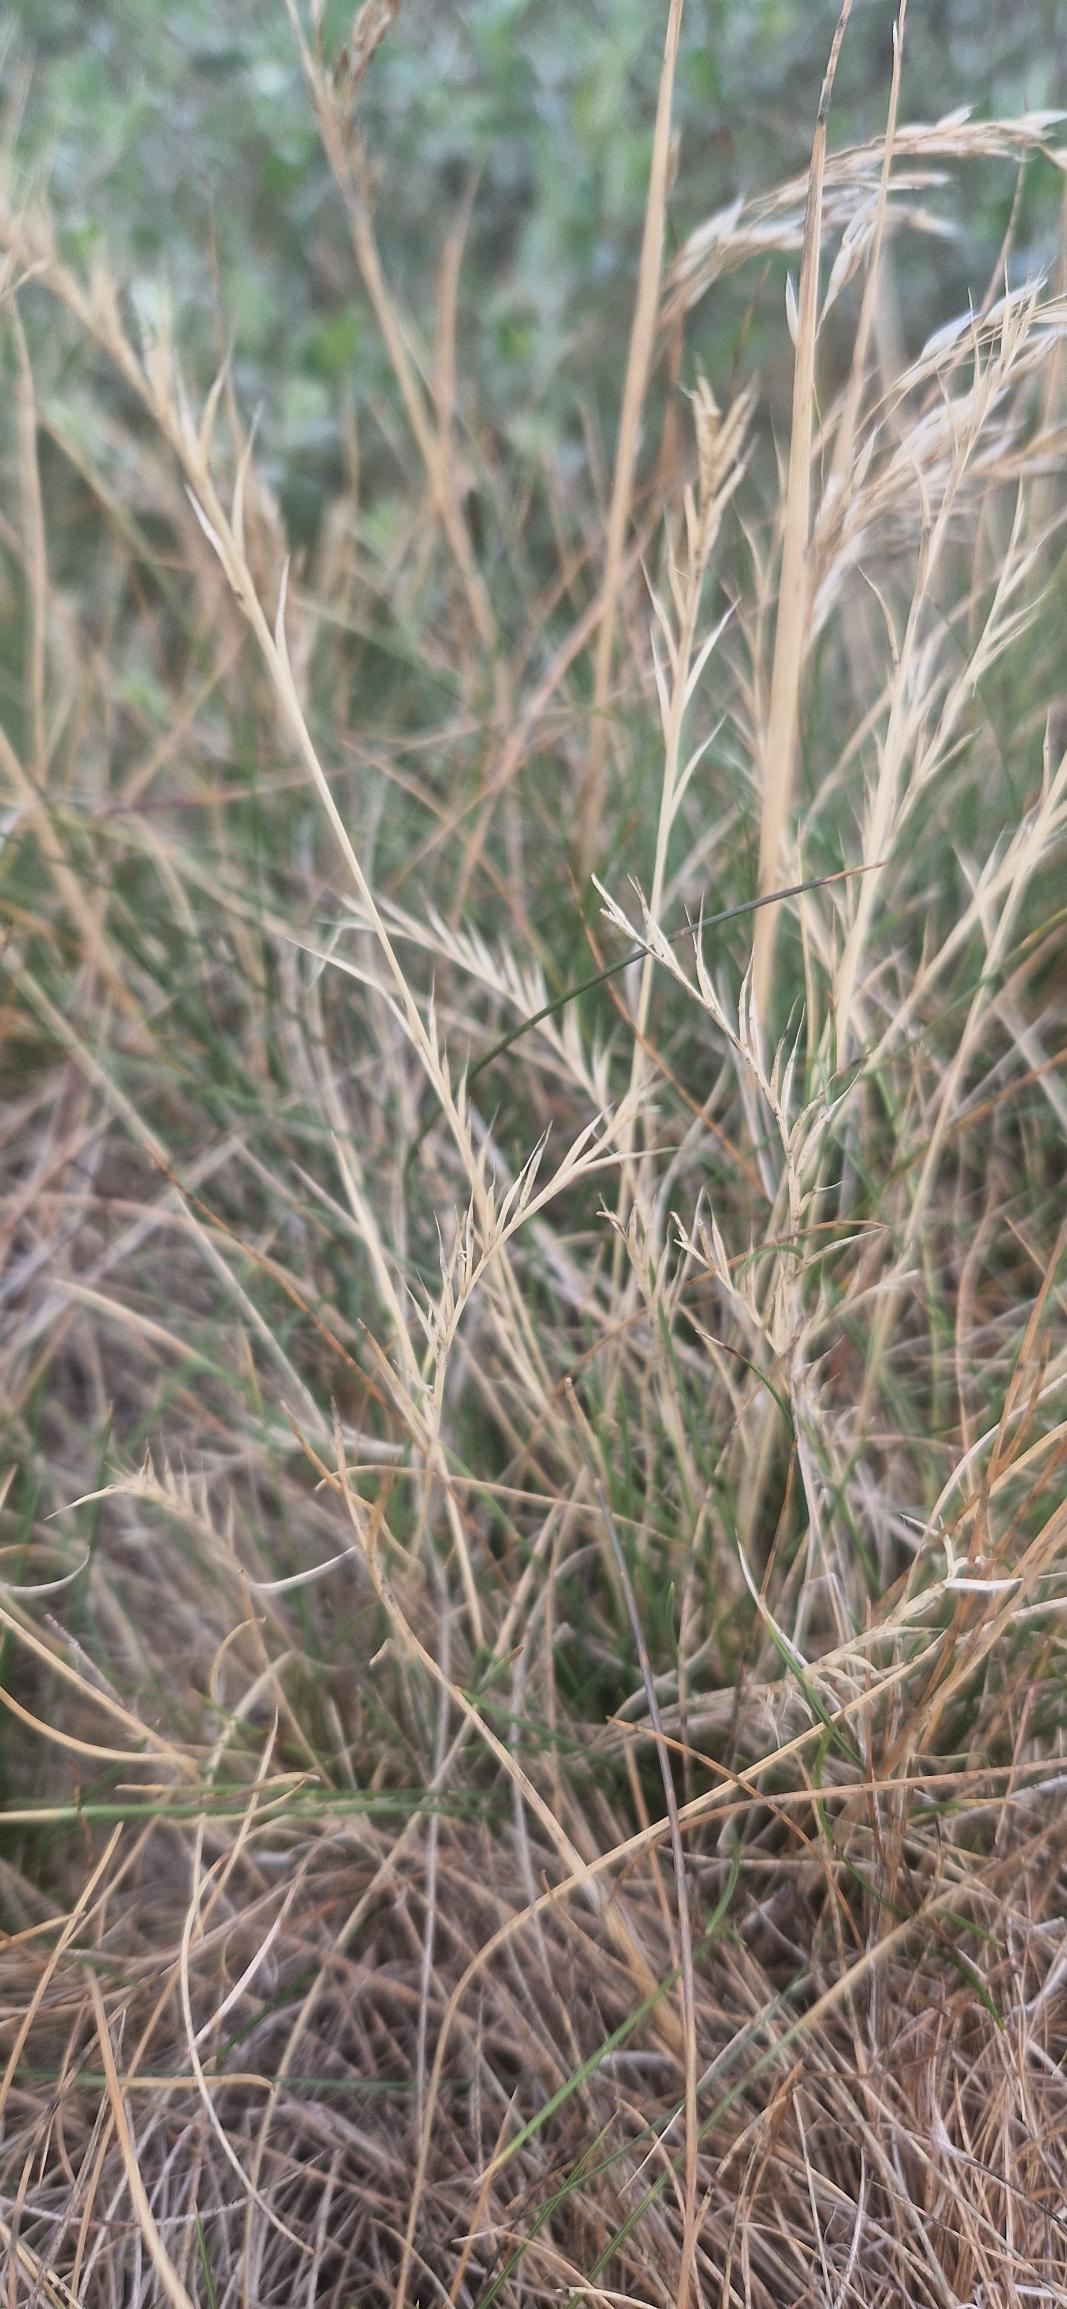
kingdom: Plantae
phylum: Tracheophyta
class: Liliopsida
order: Poales
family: Poaceae
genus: Nardus
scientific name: Nardus stricta
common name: Katteskæg
